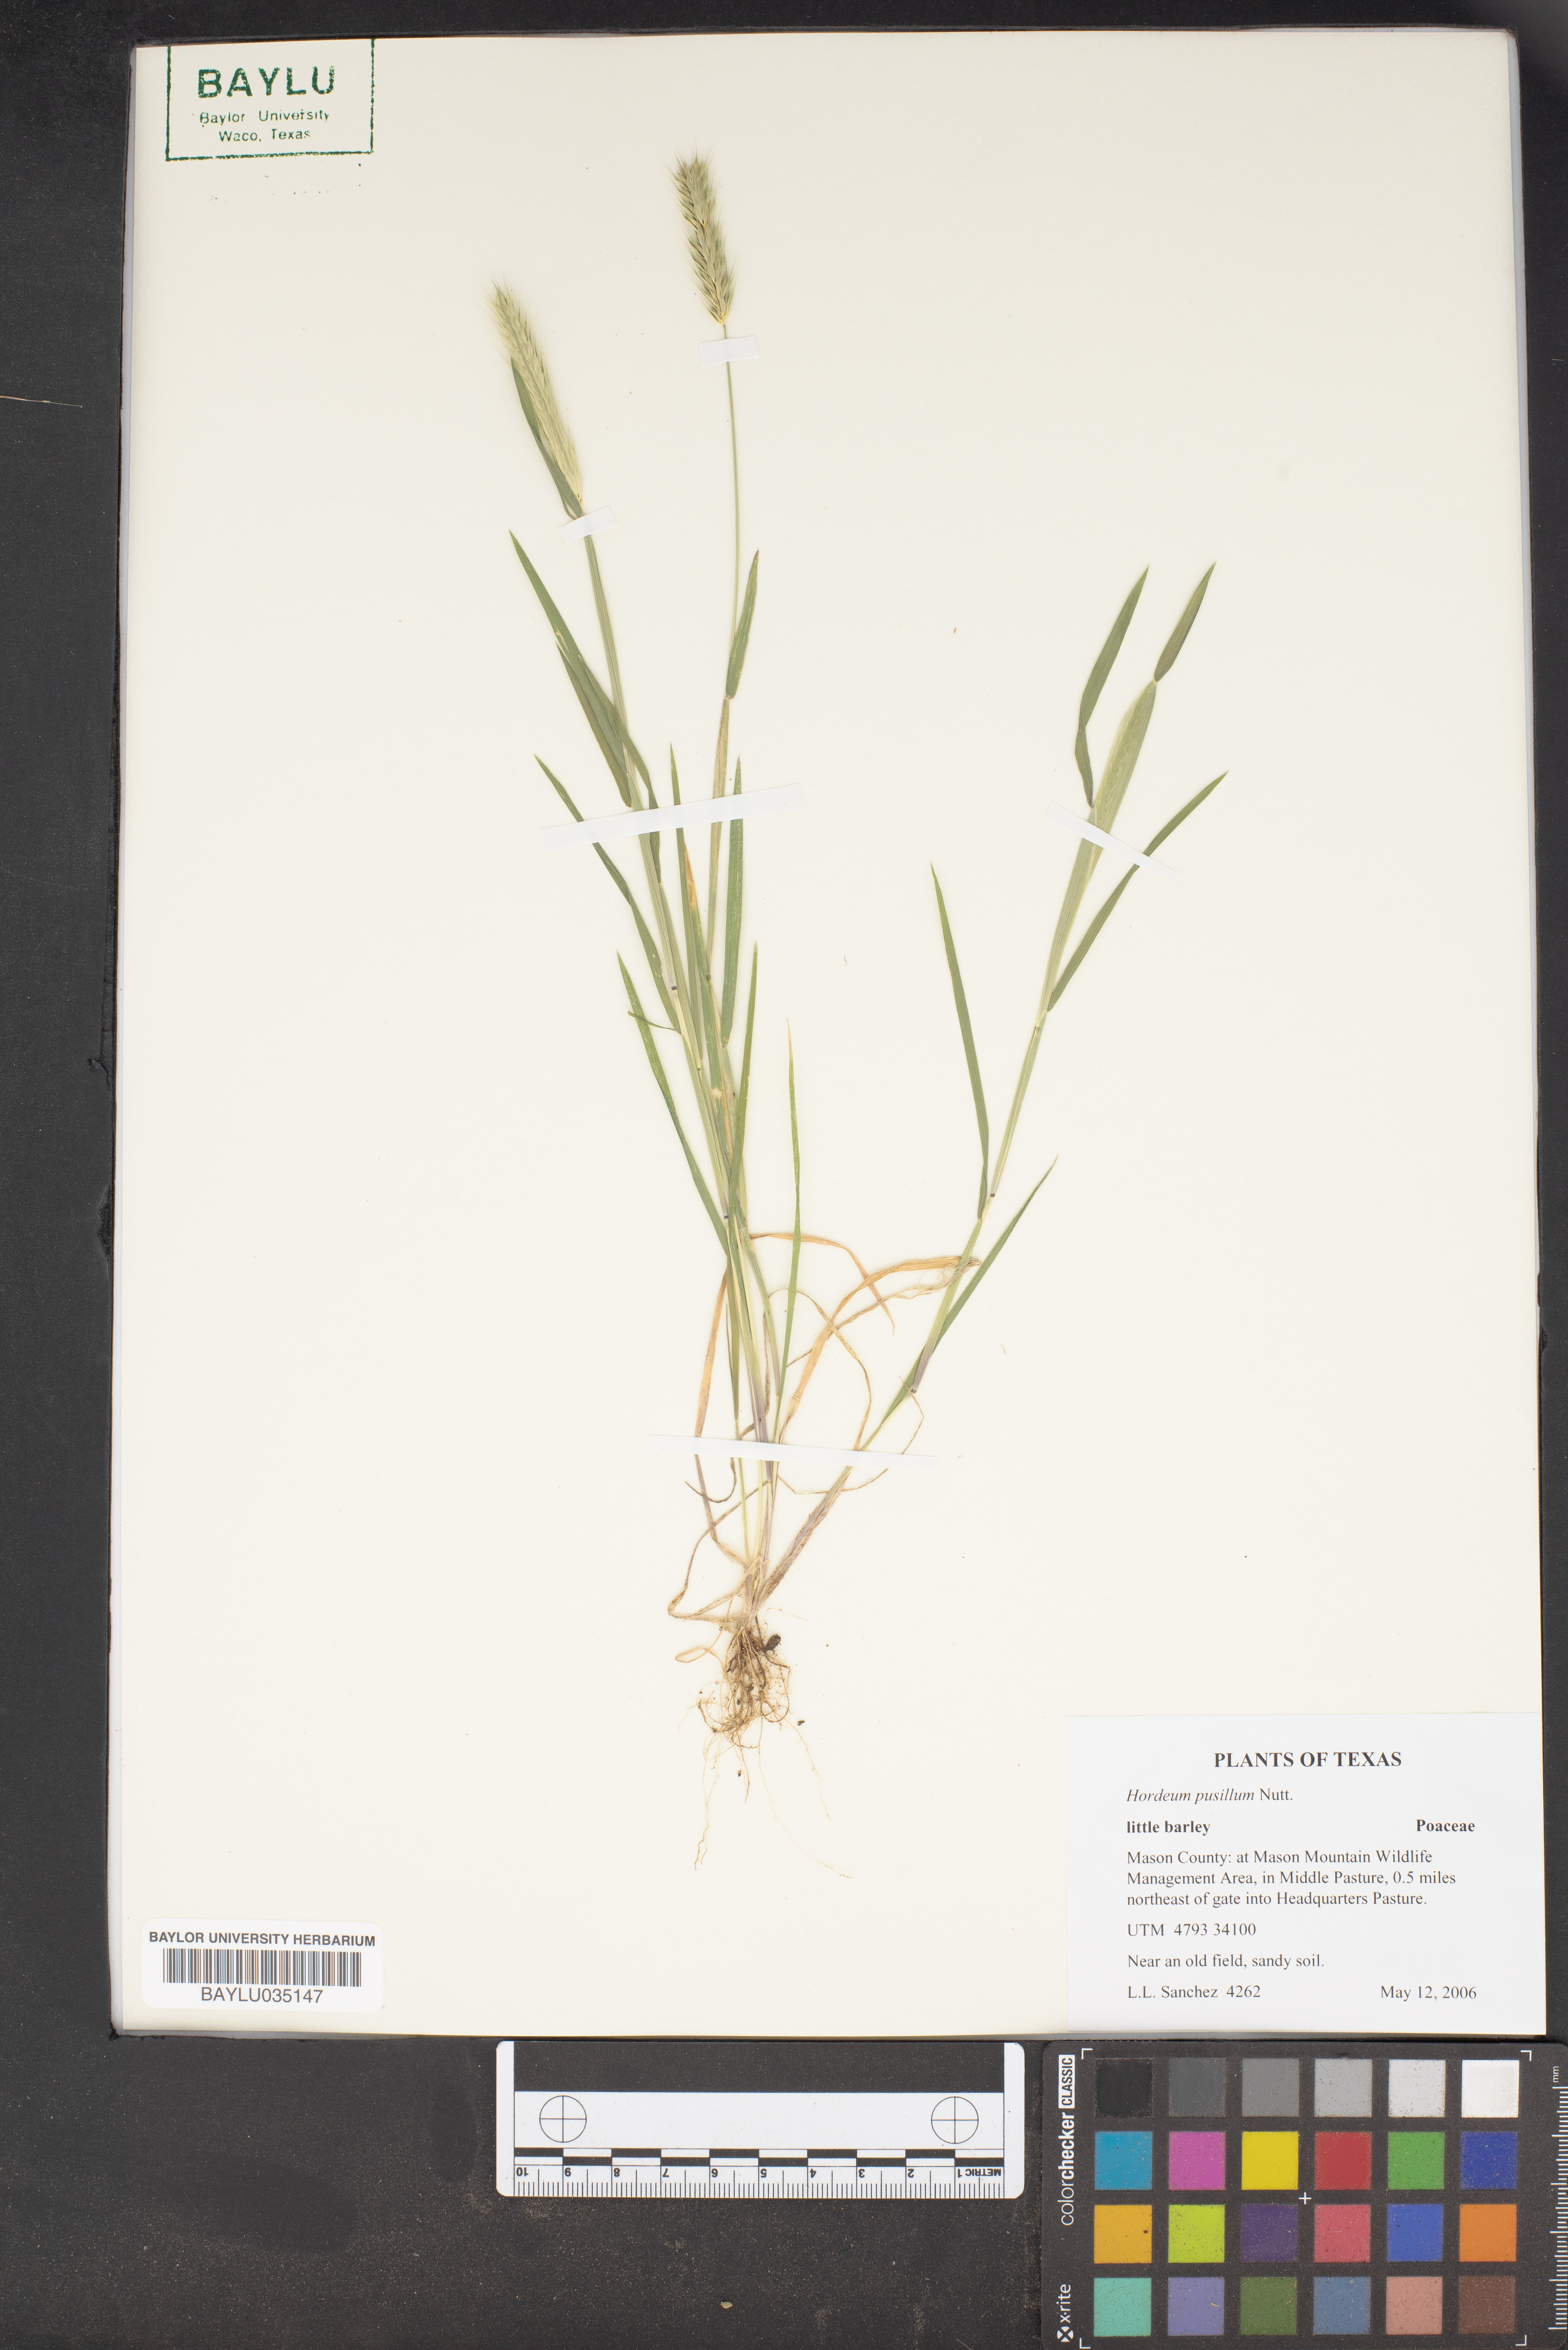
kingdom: Plantae
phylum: Tracheophyta
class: Liliopsida
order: Poales
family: Poaceae
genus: Hordeum
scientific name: Hordeum pusillum
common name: Little barley
